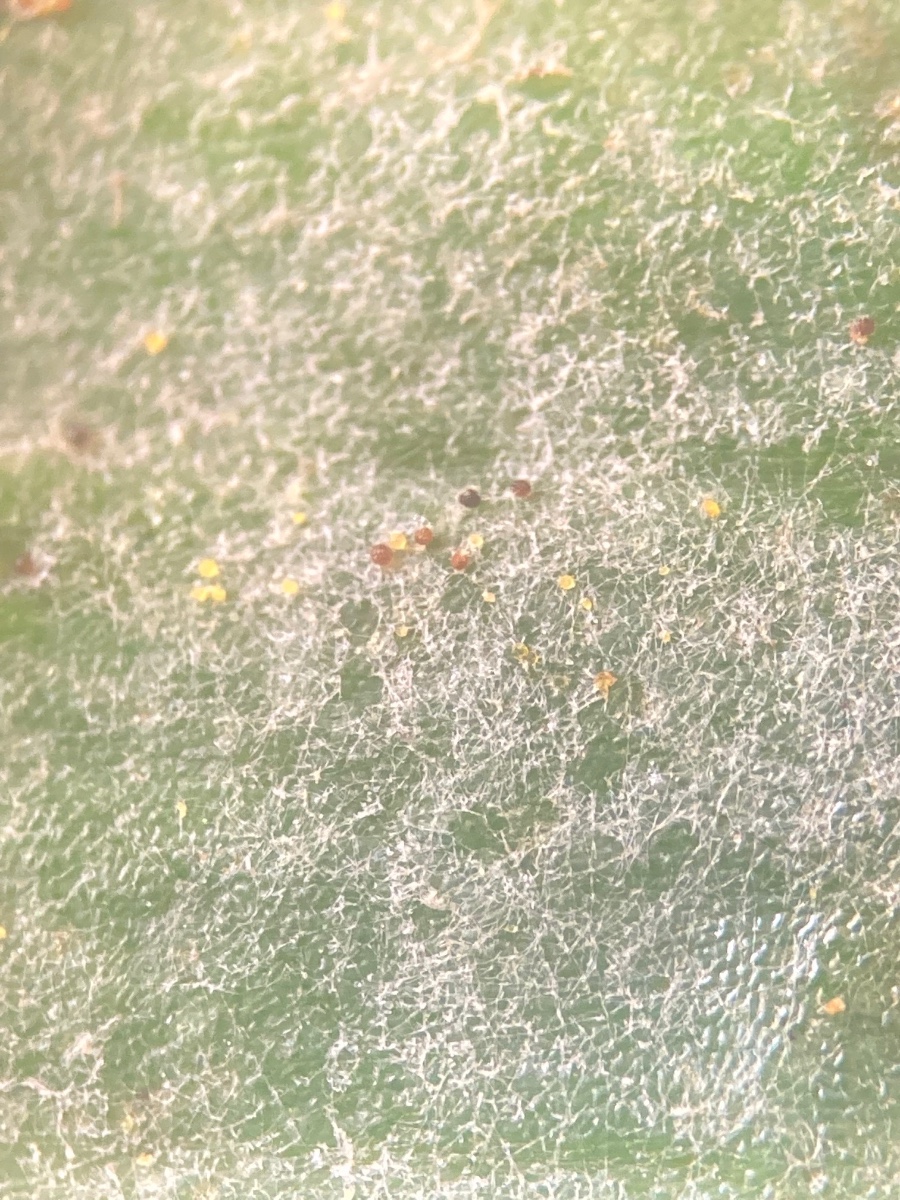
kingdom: Fungi
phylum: Ascomycota
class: Leotiomycetes
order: Helotiales
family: Erysiphaceae
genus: Erysiphe
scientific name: Erysiphe aquilegiae
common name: ranunkel-meldug
